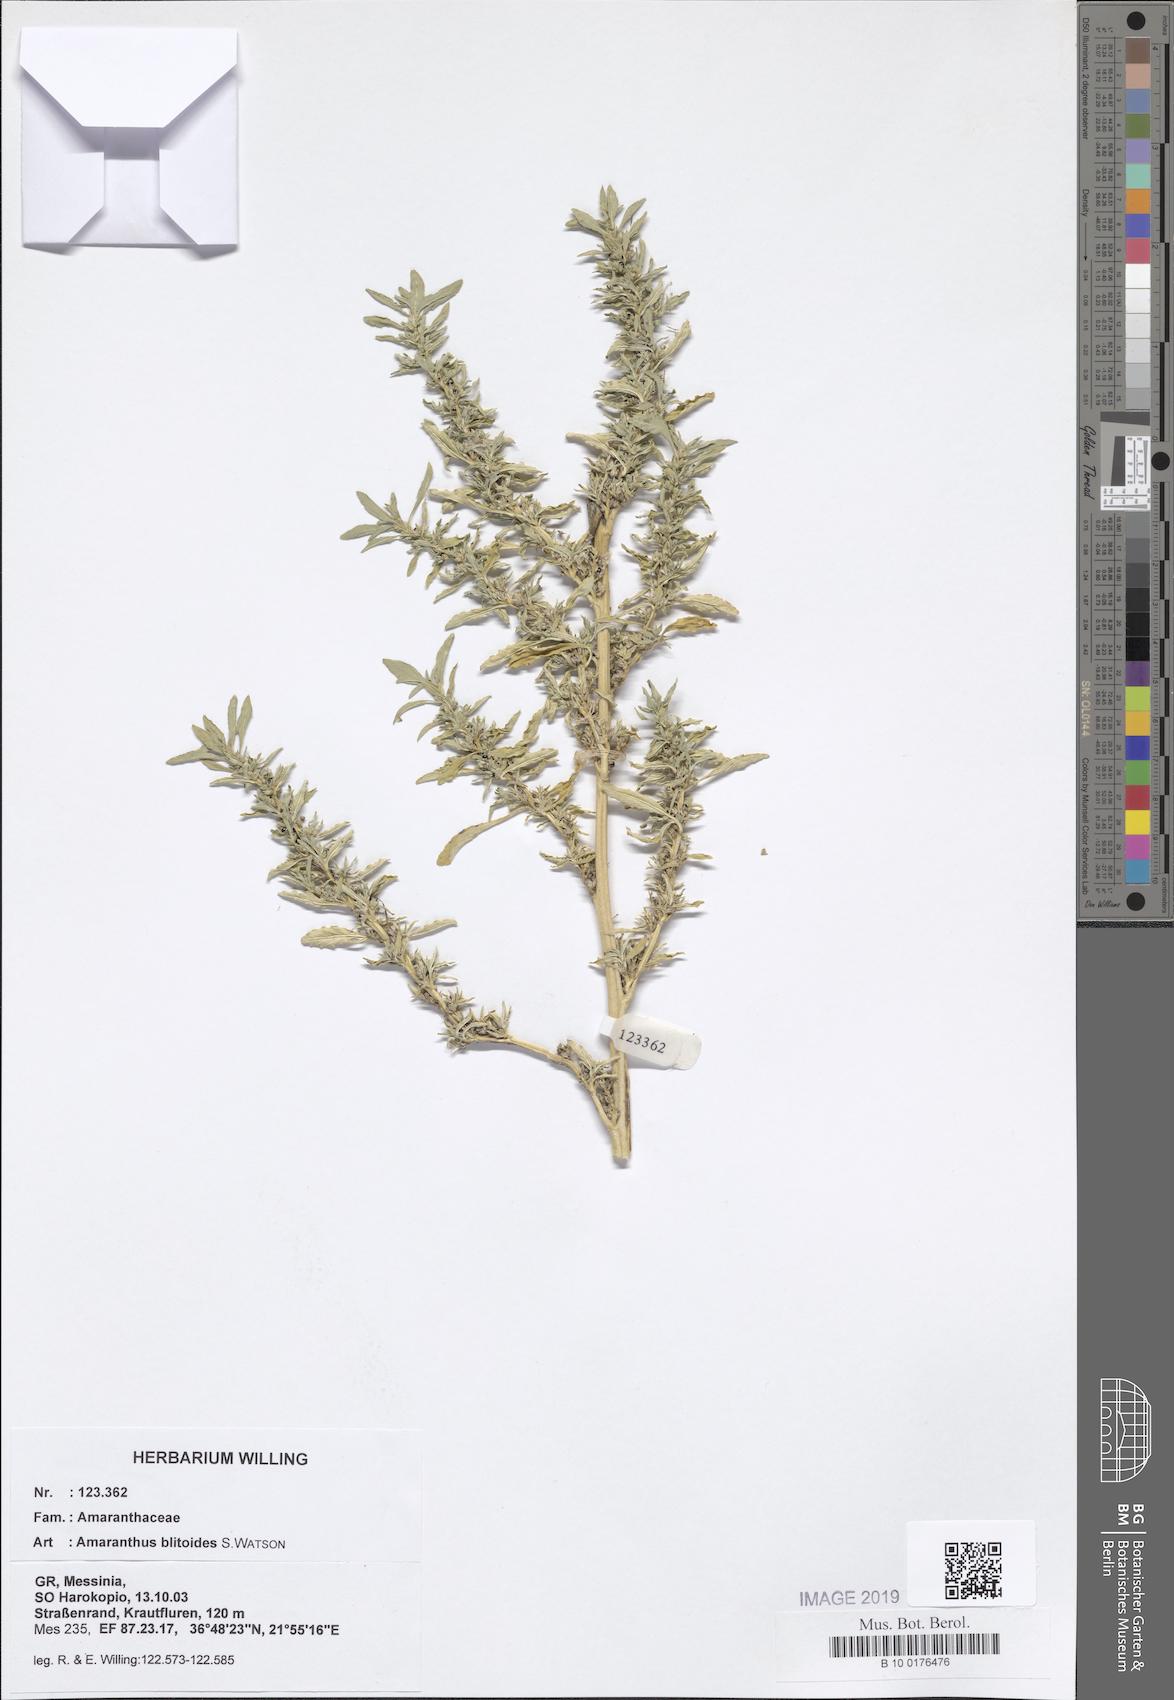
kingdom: Plantae
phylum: Tracheophyta
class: Magnoliopsida
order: Caryophyllales
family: Amaranthaceae
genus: Amaranthus
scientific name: Amaranthus blitoides
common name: Prostrate pigweed
